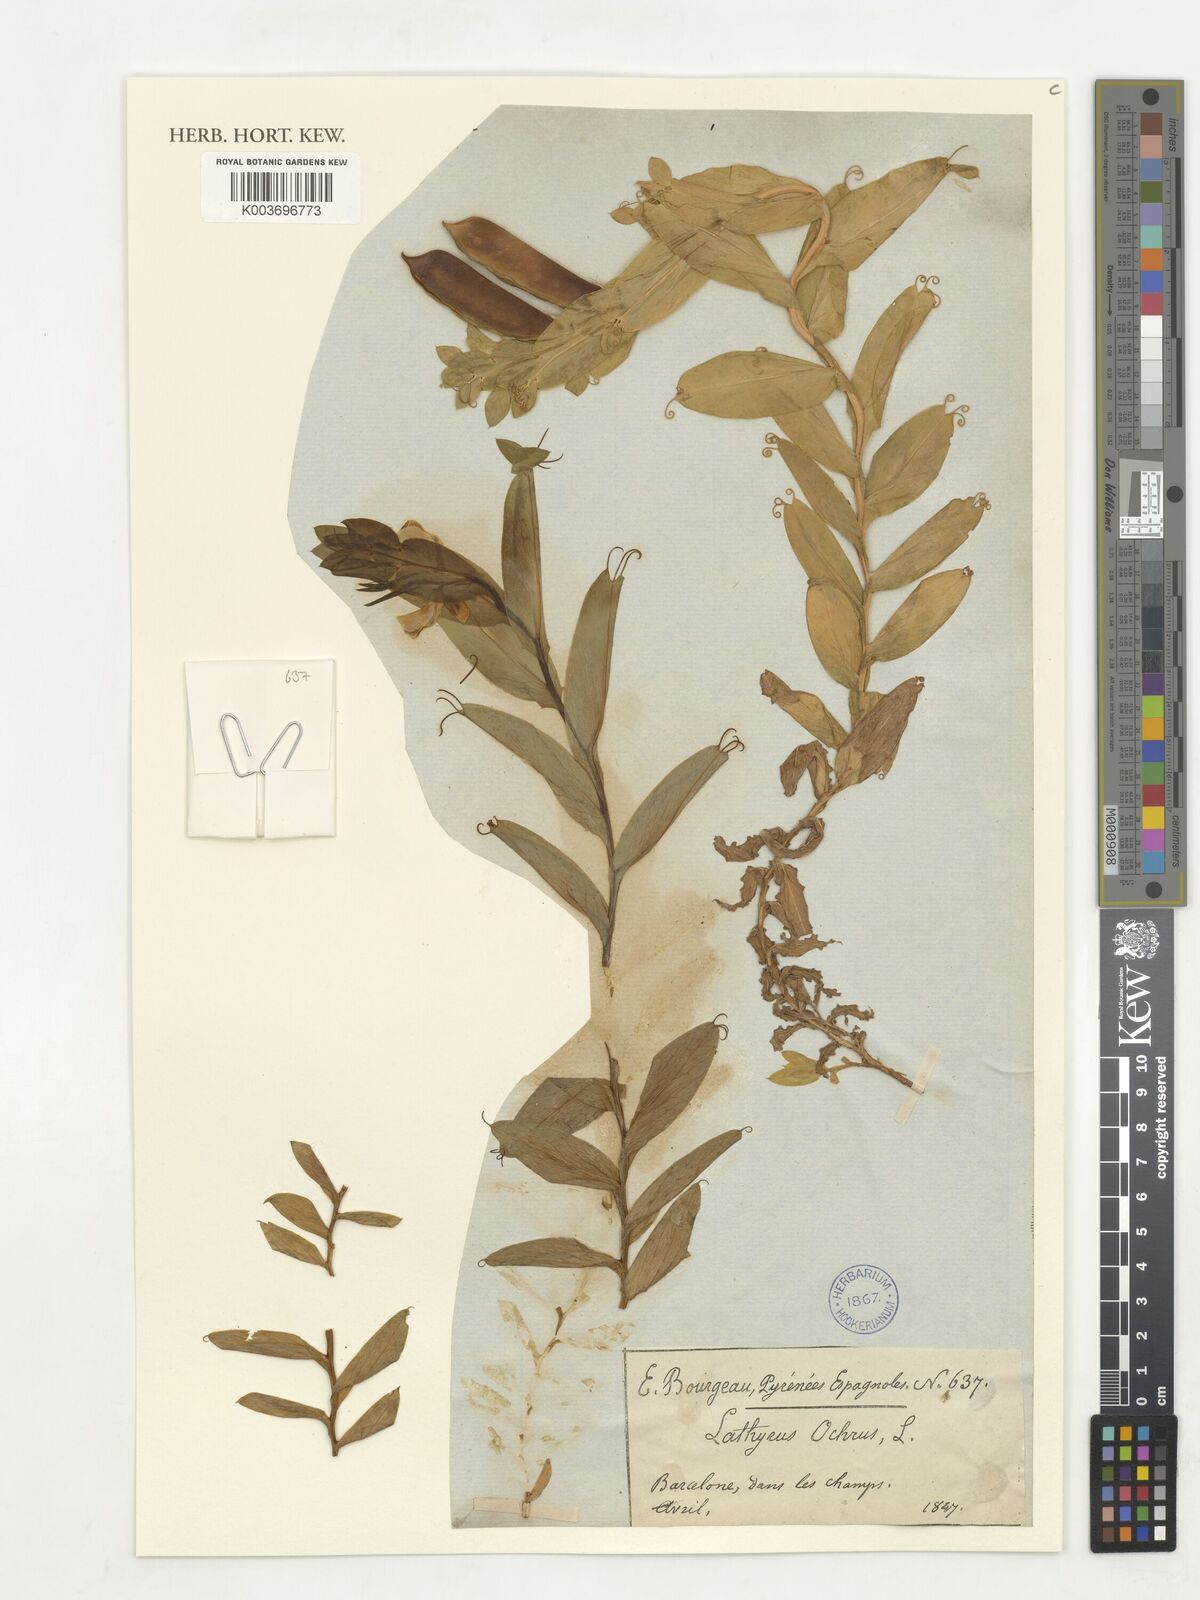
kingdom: Plantae
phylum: Tracheophyta
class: Magnoliopsida
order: Fabales
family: Fabaceae
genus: Lathyrus
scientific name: Lathyrus ochrus
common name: Winged vetchling
